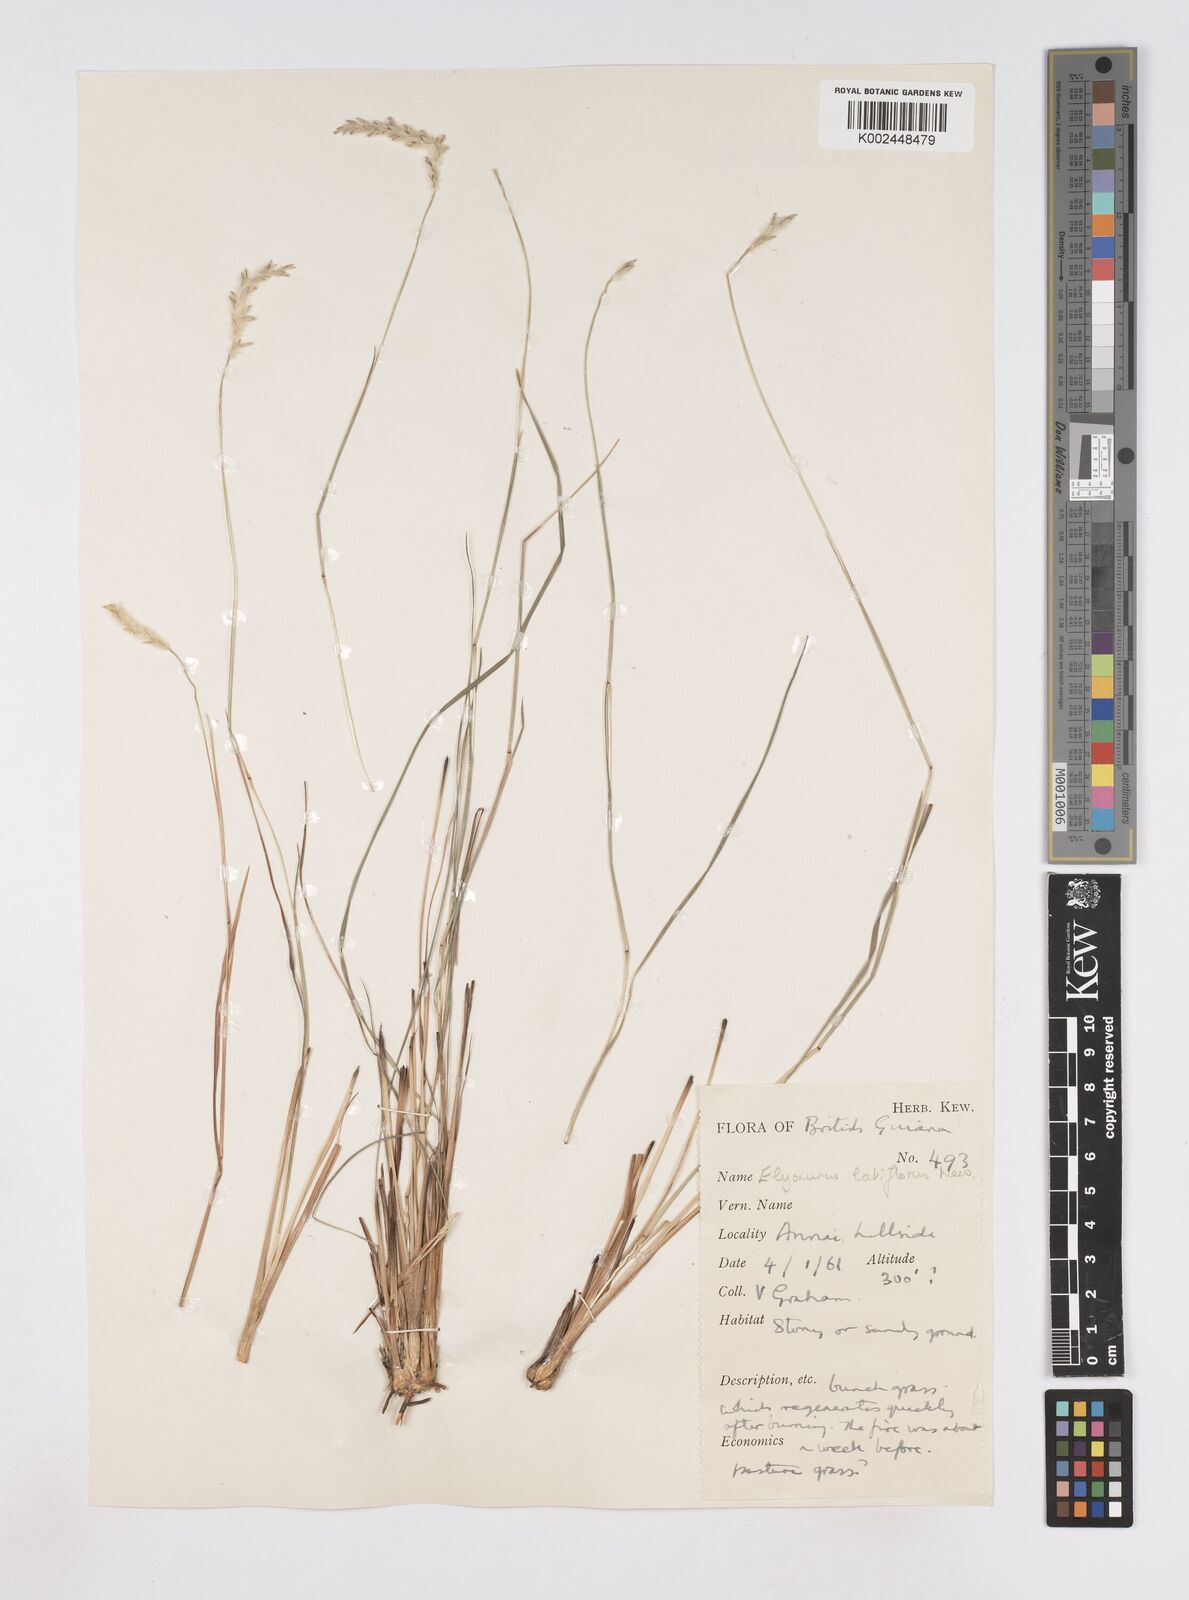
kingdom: Plantae
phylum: Tracheophyta
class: Liliopsida
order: Poales
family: Poaceae
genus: Elionurus
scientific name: Elionurus planifolius
